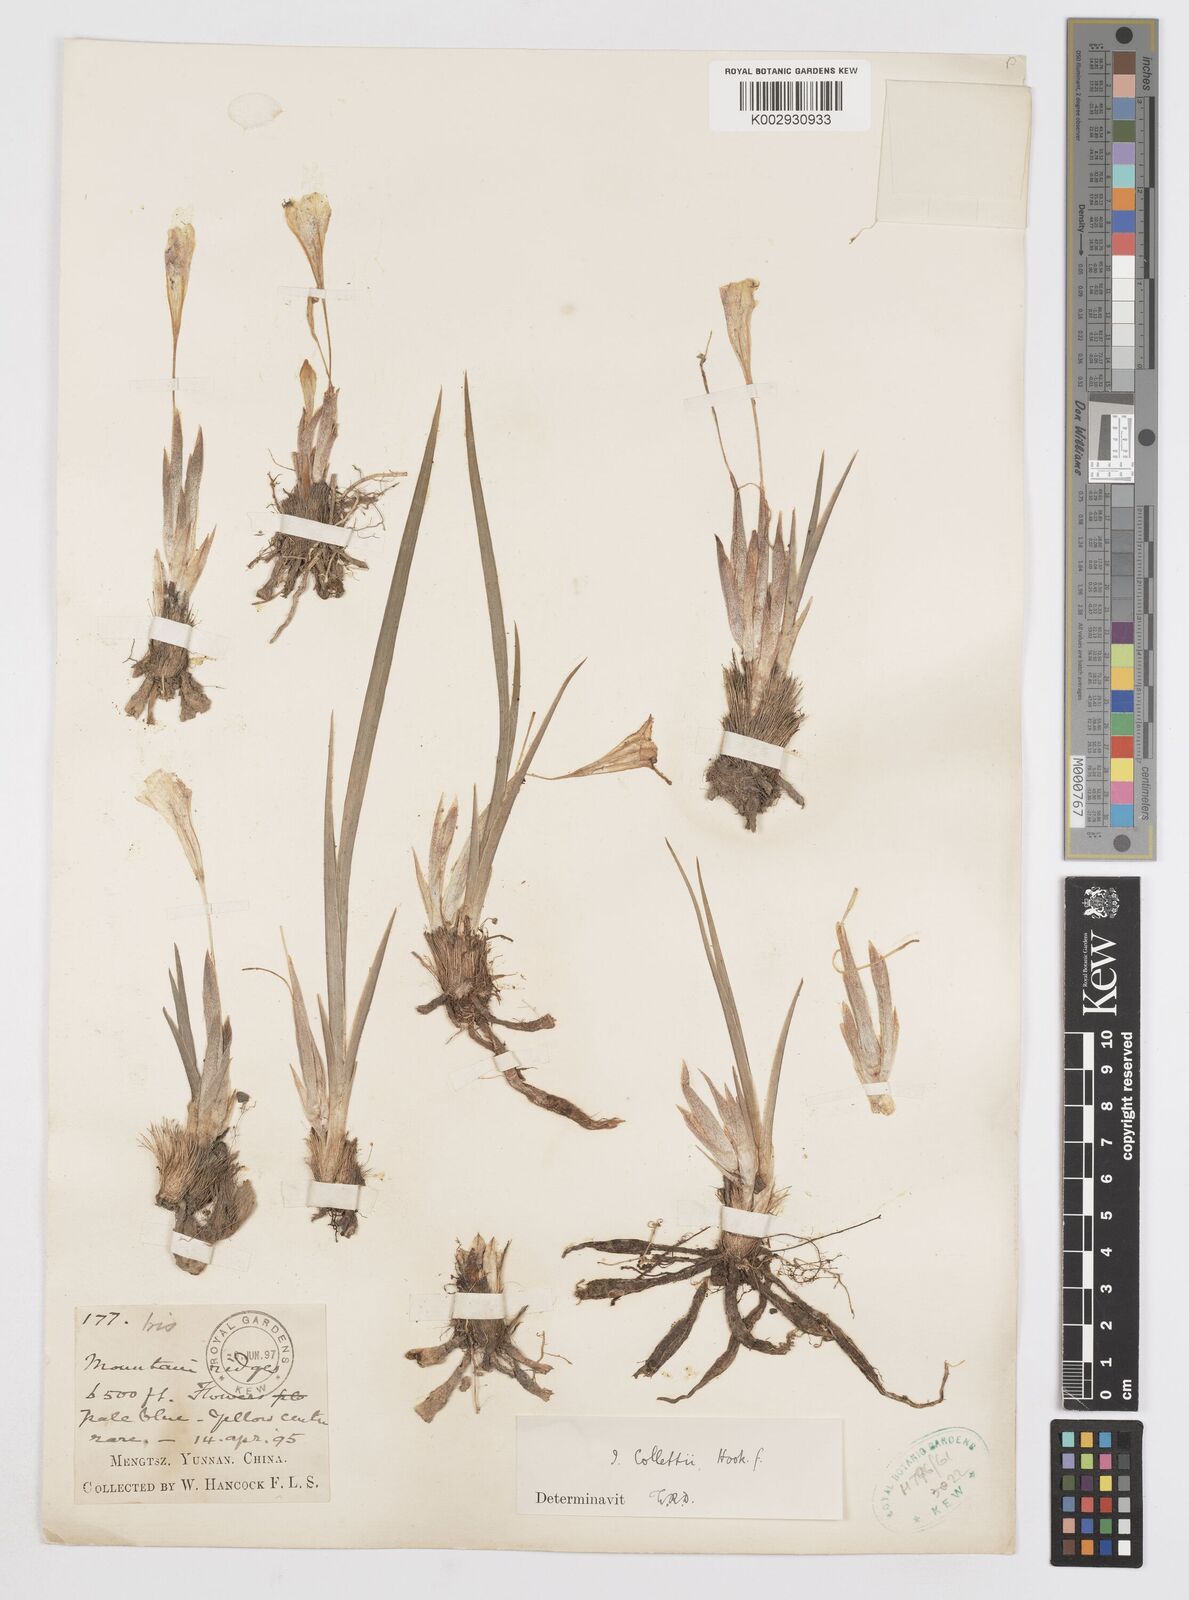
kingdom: Plantae
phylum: Tracheophyta
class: Liliopsida
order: Asparagales
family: Iridaceae
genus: Iris
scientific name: Iris collettii
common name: Plateau iris
